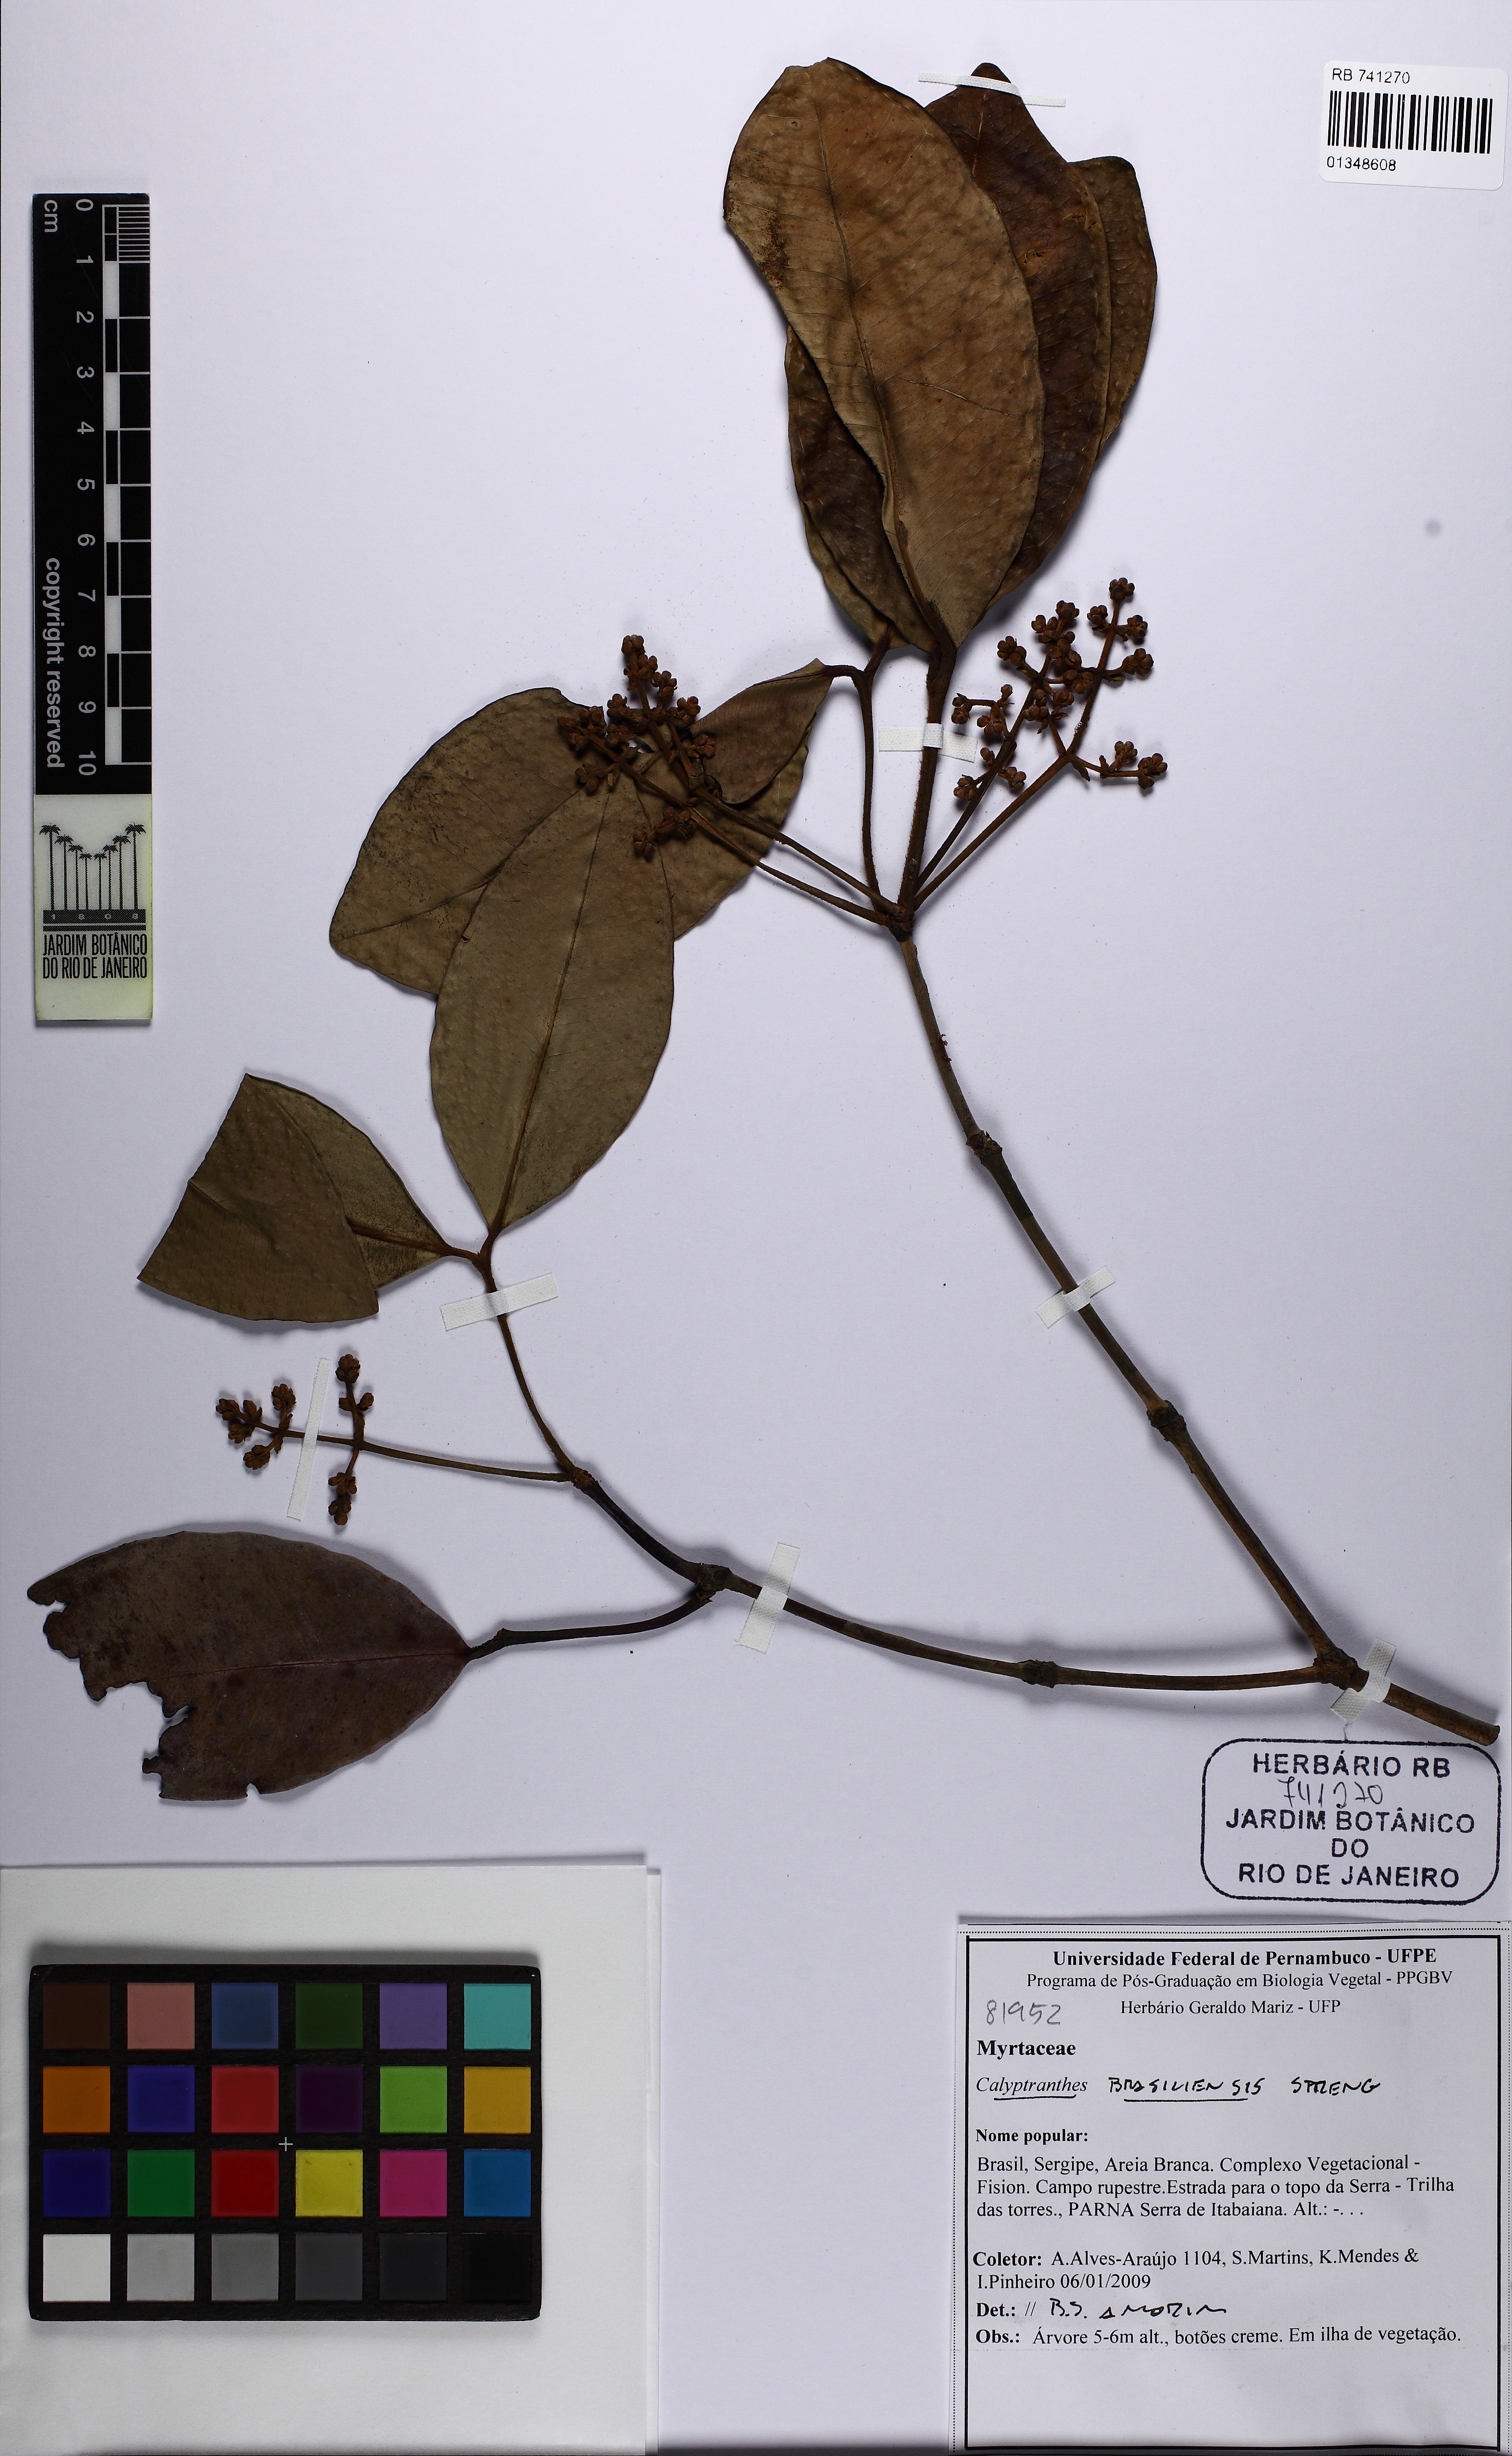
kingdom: Plantae
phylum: Tracheophyta
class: Magnoliopsida
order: Myrtales
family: Myrtaceae
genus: Myrcia
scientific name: Myrcia neobrasiliensis
